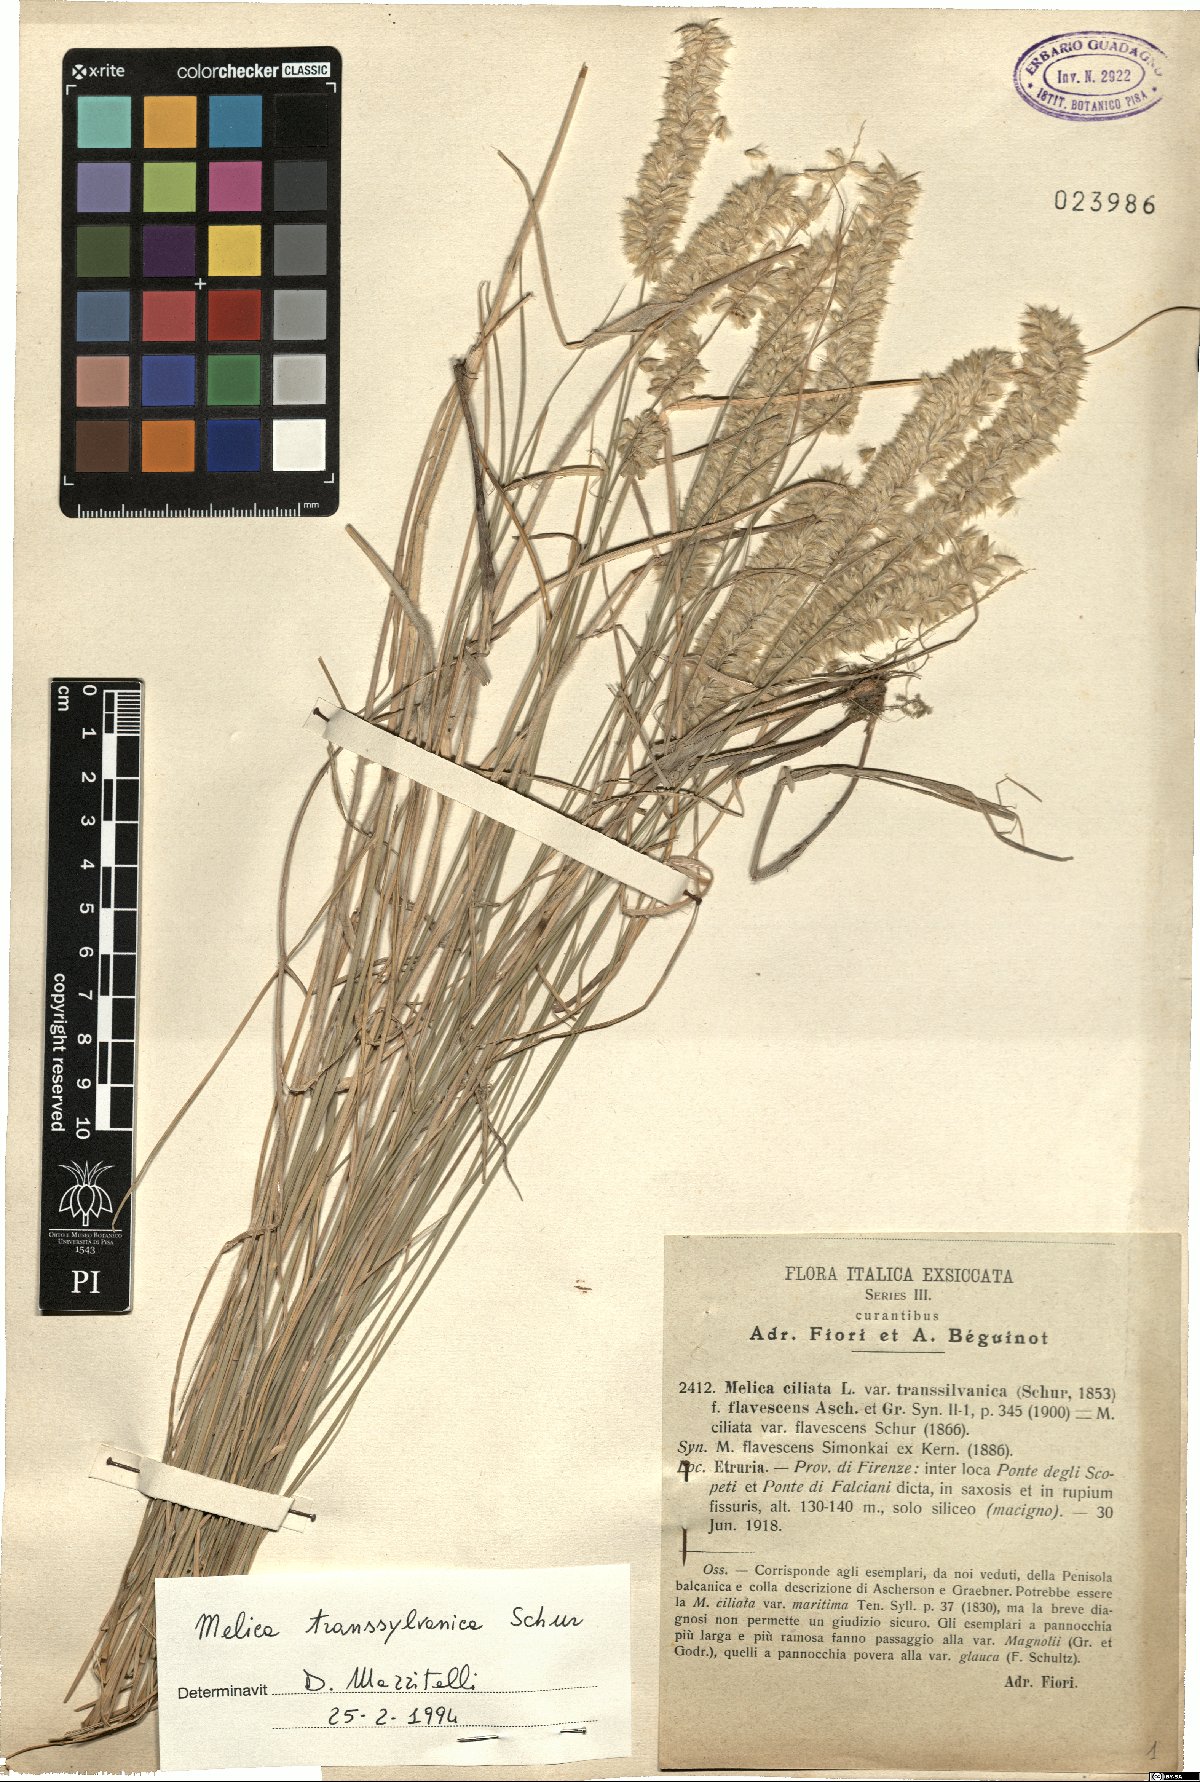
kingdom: Plantae
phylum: Tracheophyta
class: Liliopsida
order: Poales
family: Poaceae
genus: Melica
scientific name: Melica transsilvanica
